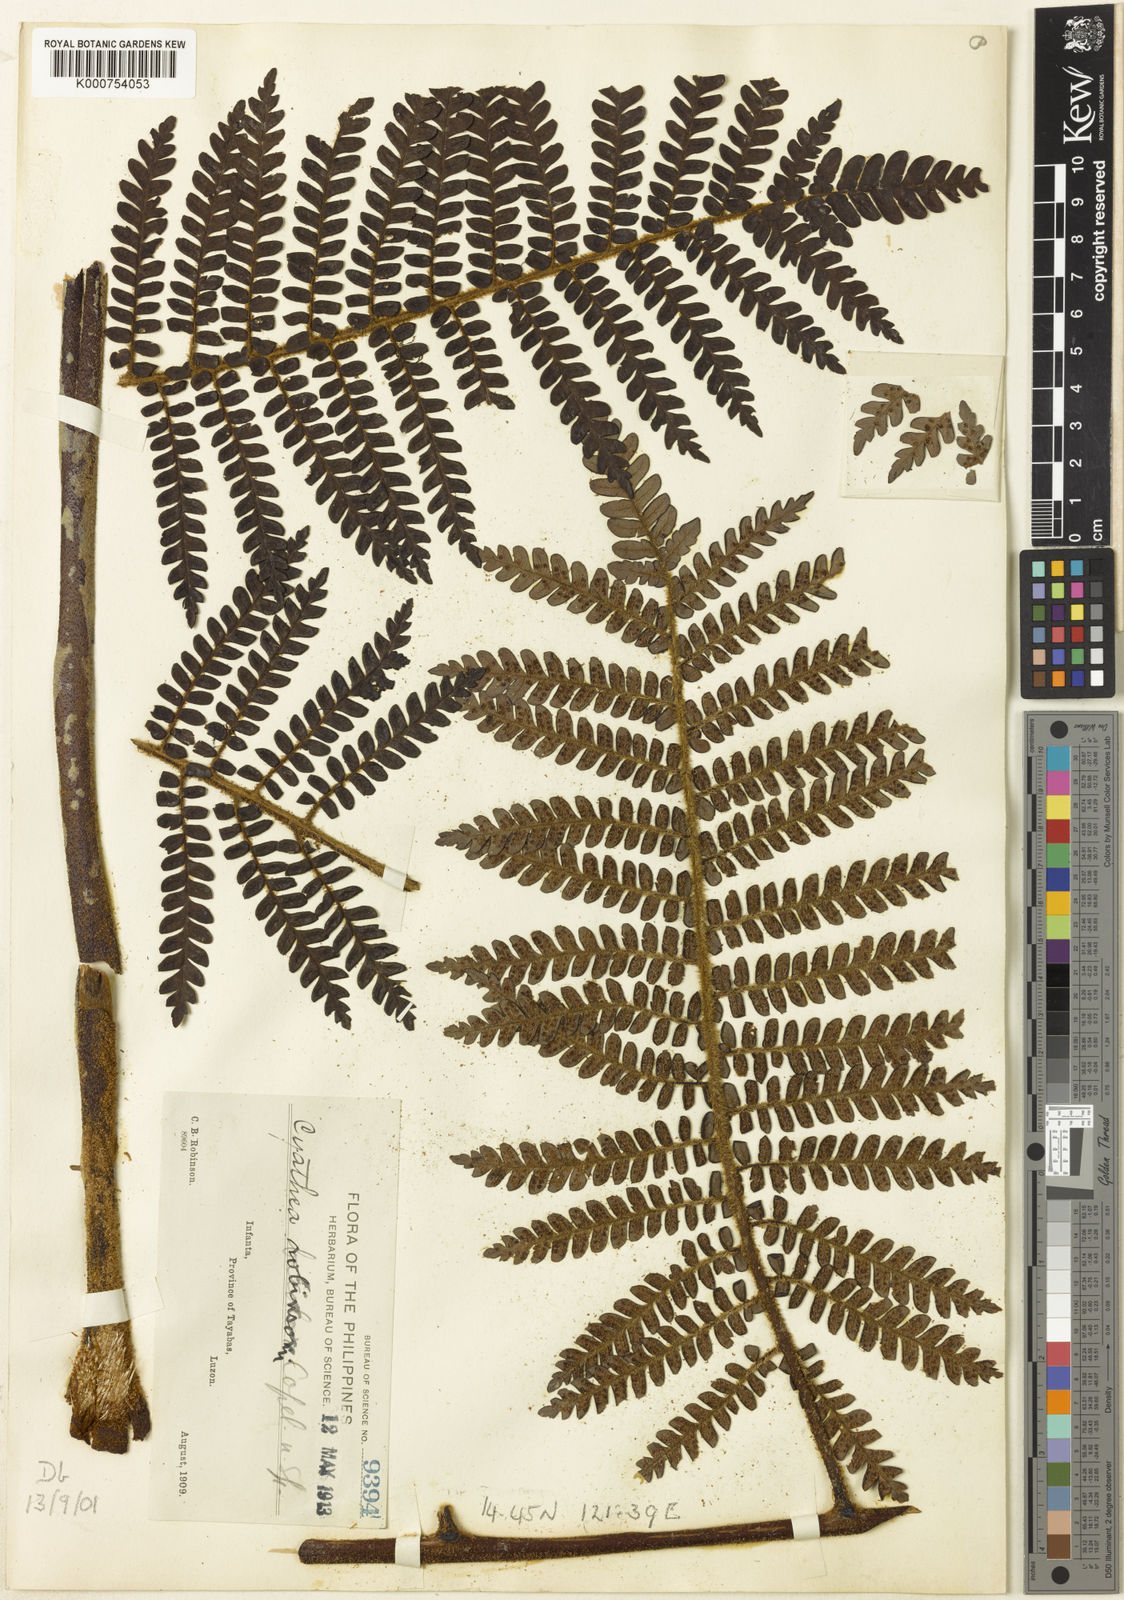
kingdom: Plantae
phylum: Tracheophyta
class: Polypodiopsida
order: Cyatheales
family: Cyatheaceae
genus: Sphaeropteris
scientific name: Sphaeropteris robinsonii
